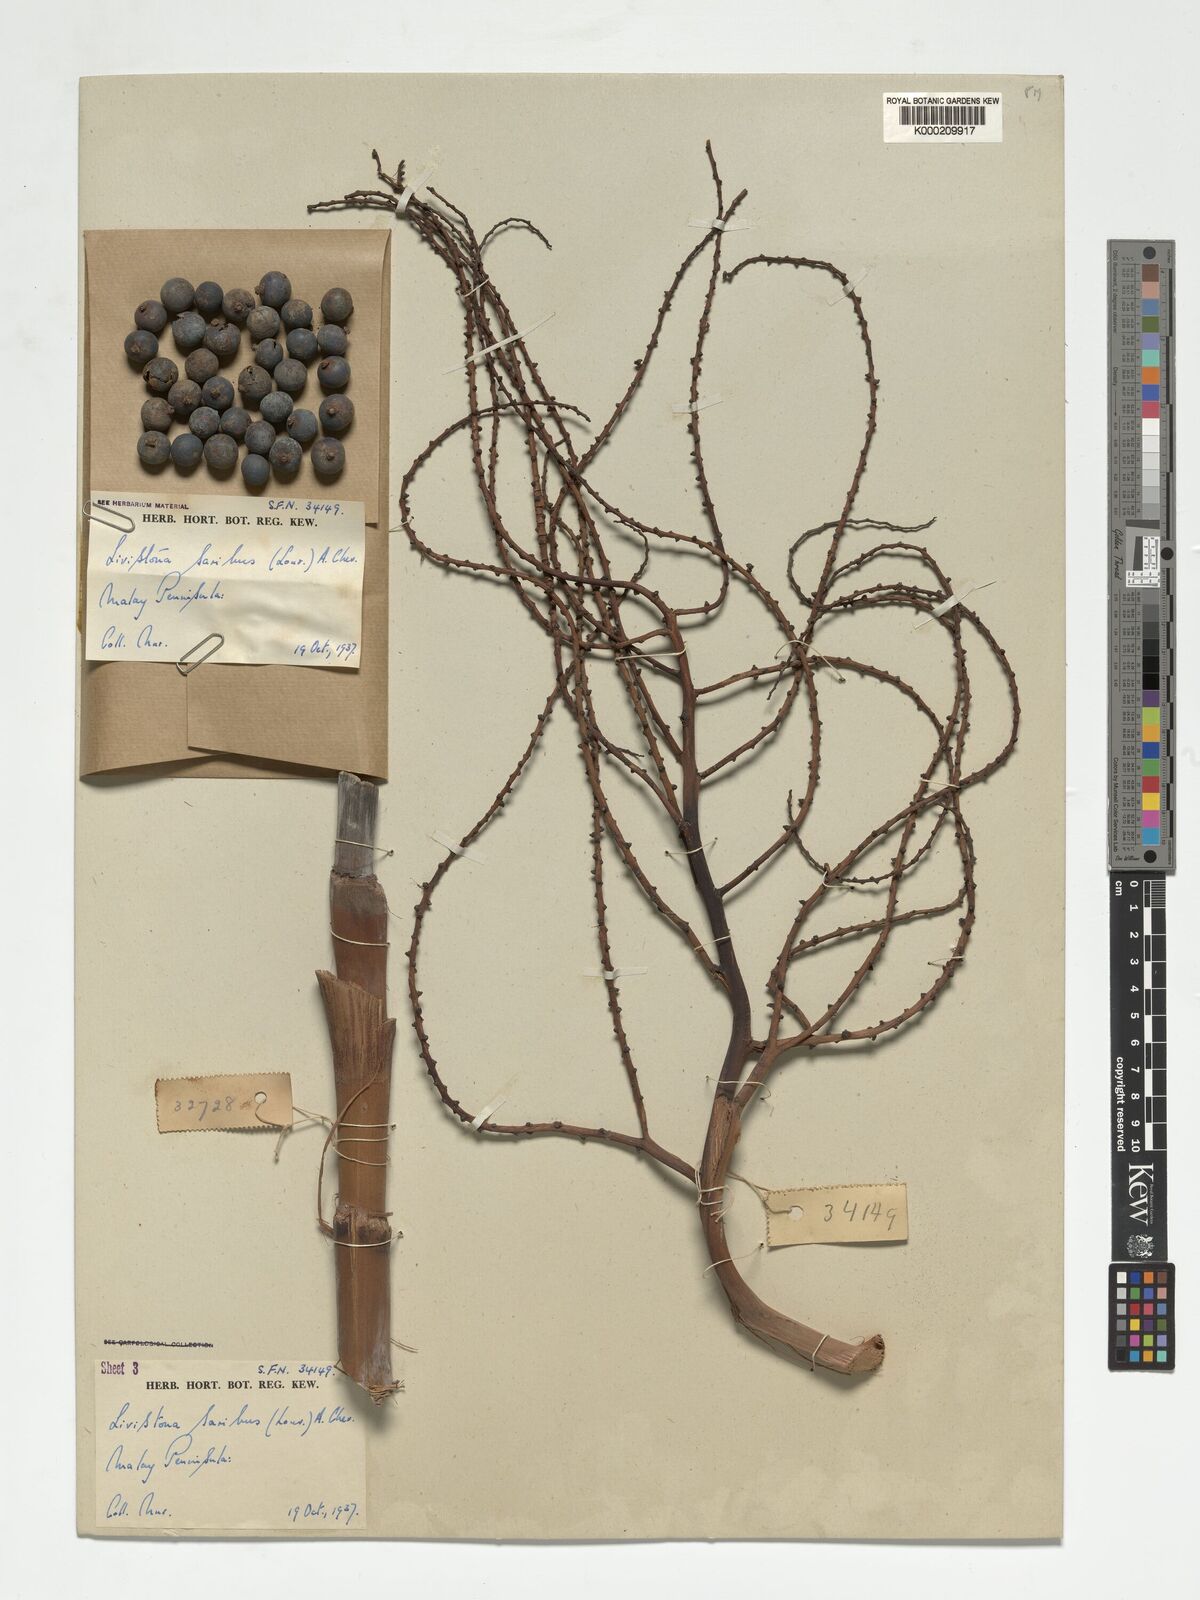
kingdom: Plantae
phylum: Tracheophyta
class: Liliopsida
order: Arecales
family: Arecaceae
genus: Livistona
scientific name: Livistona saribus
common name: Taraw palm
